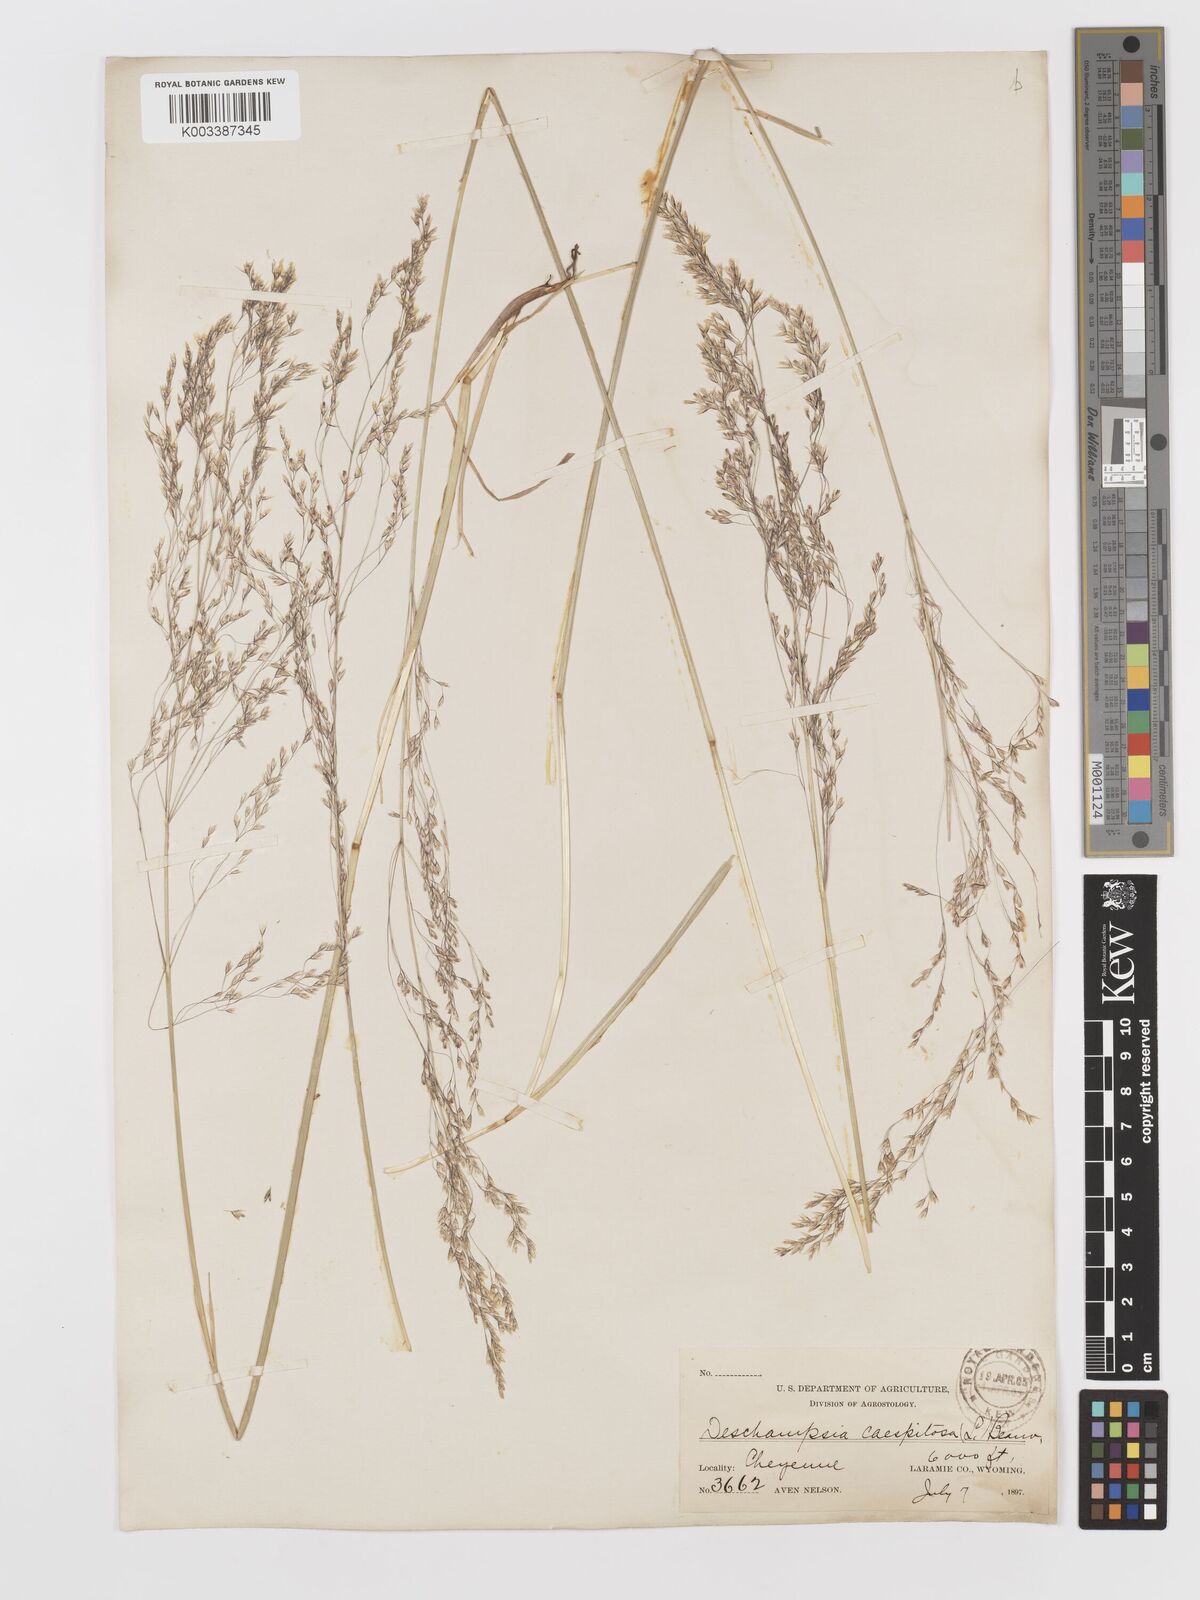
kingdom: Plantae
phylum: Tracheophyta
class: Liliopsida
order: Poales
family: Poaceae
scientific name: Poaceae
